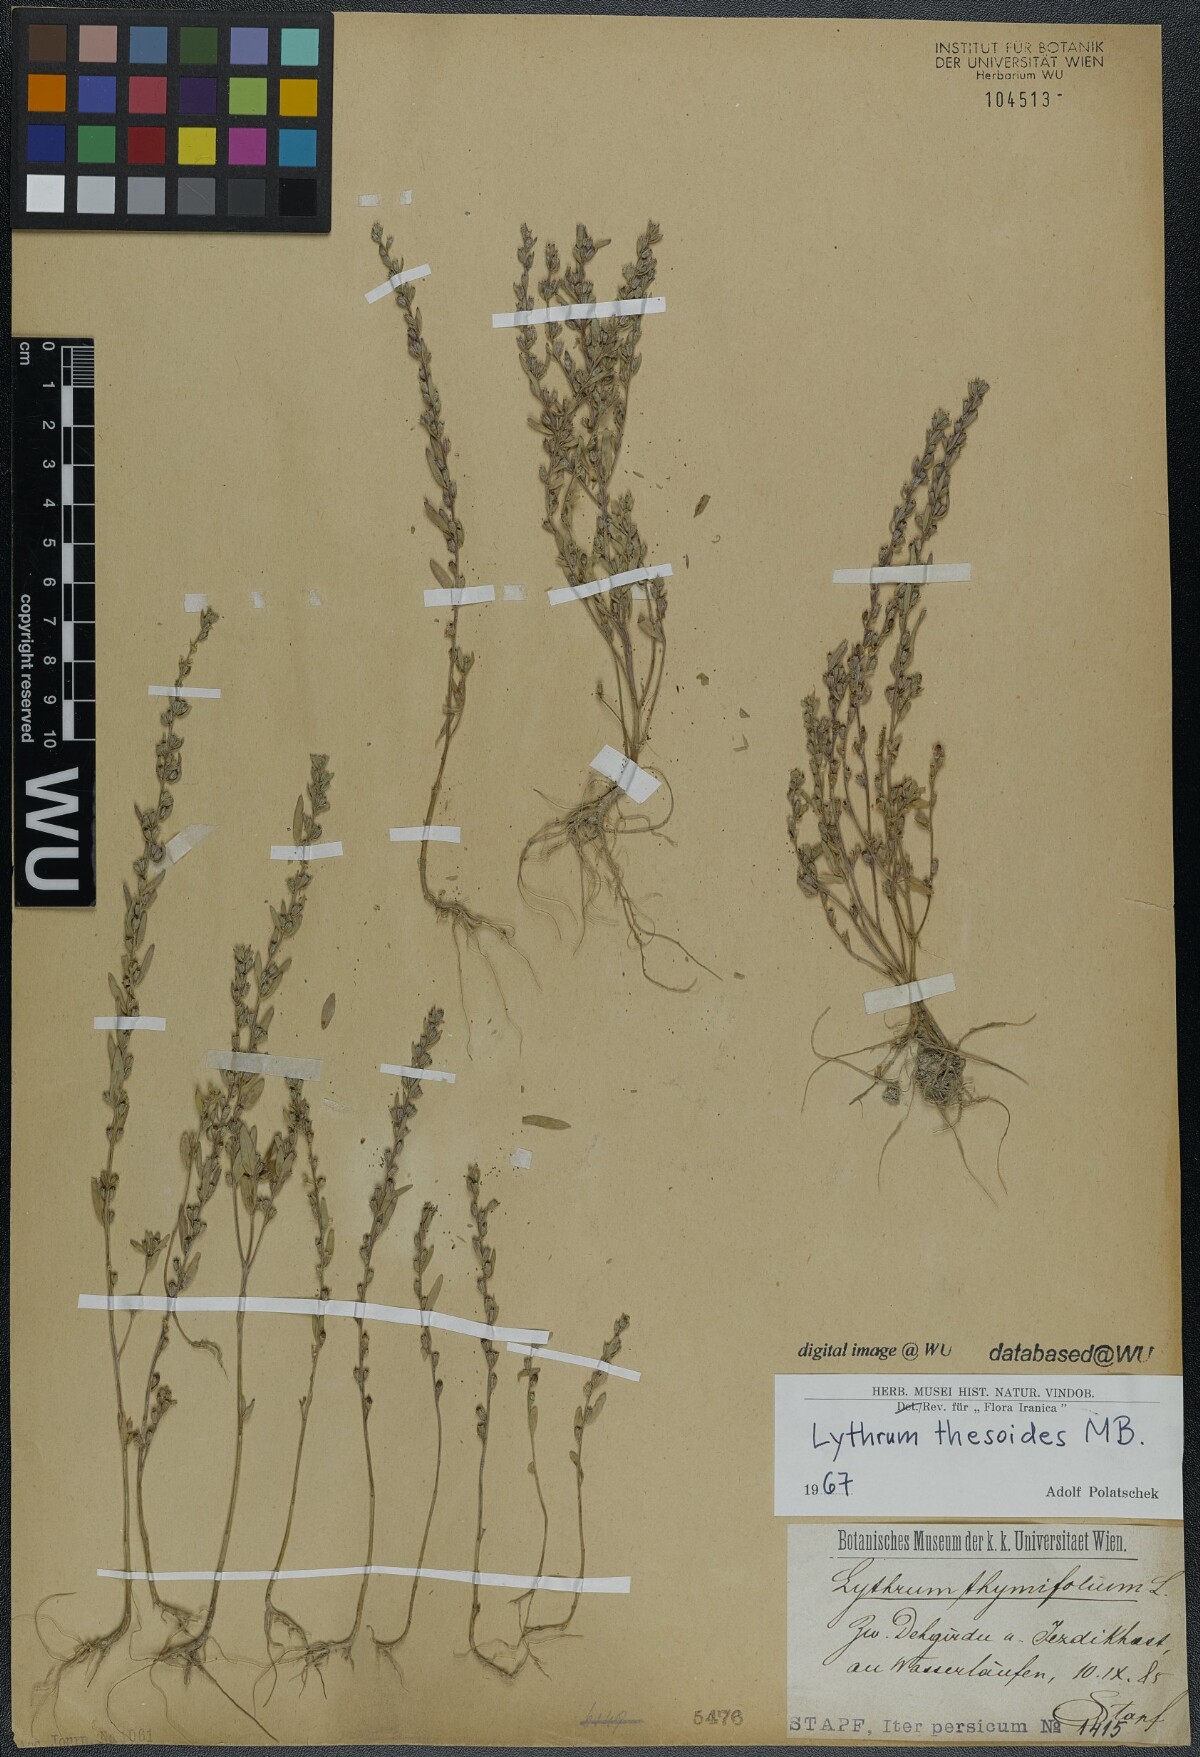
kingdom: Plantae
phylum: Tracheophyta
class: Magnoliopsida
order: Myrtales
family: Lythraceae
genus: Lythrum
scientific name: Lythrum thesioides
